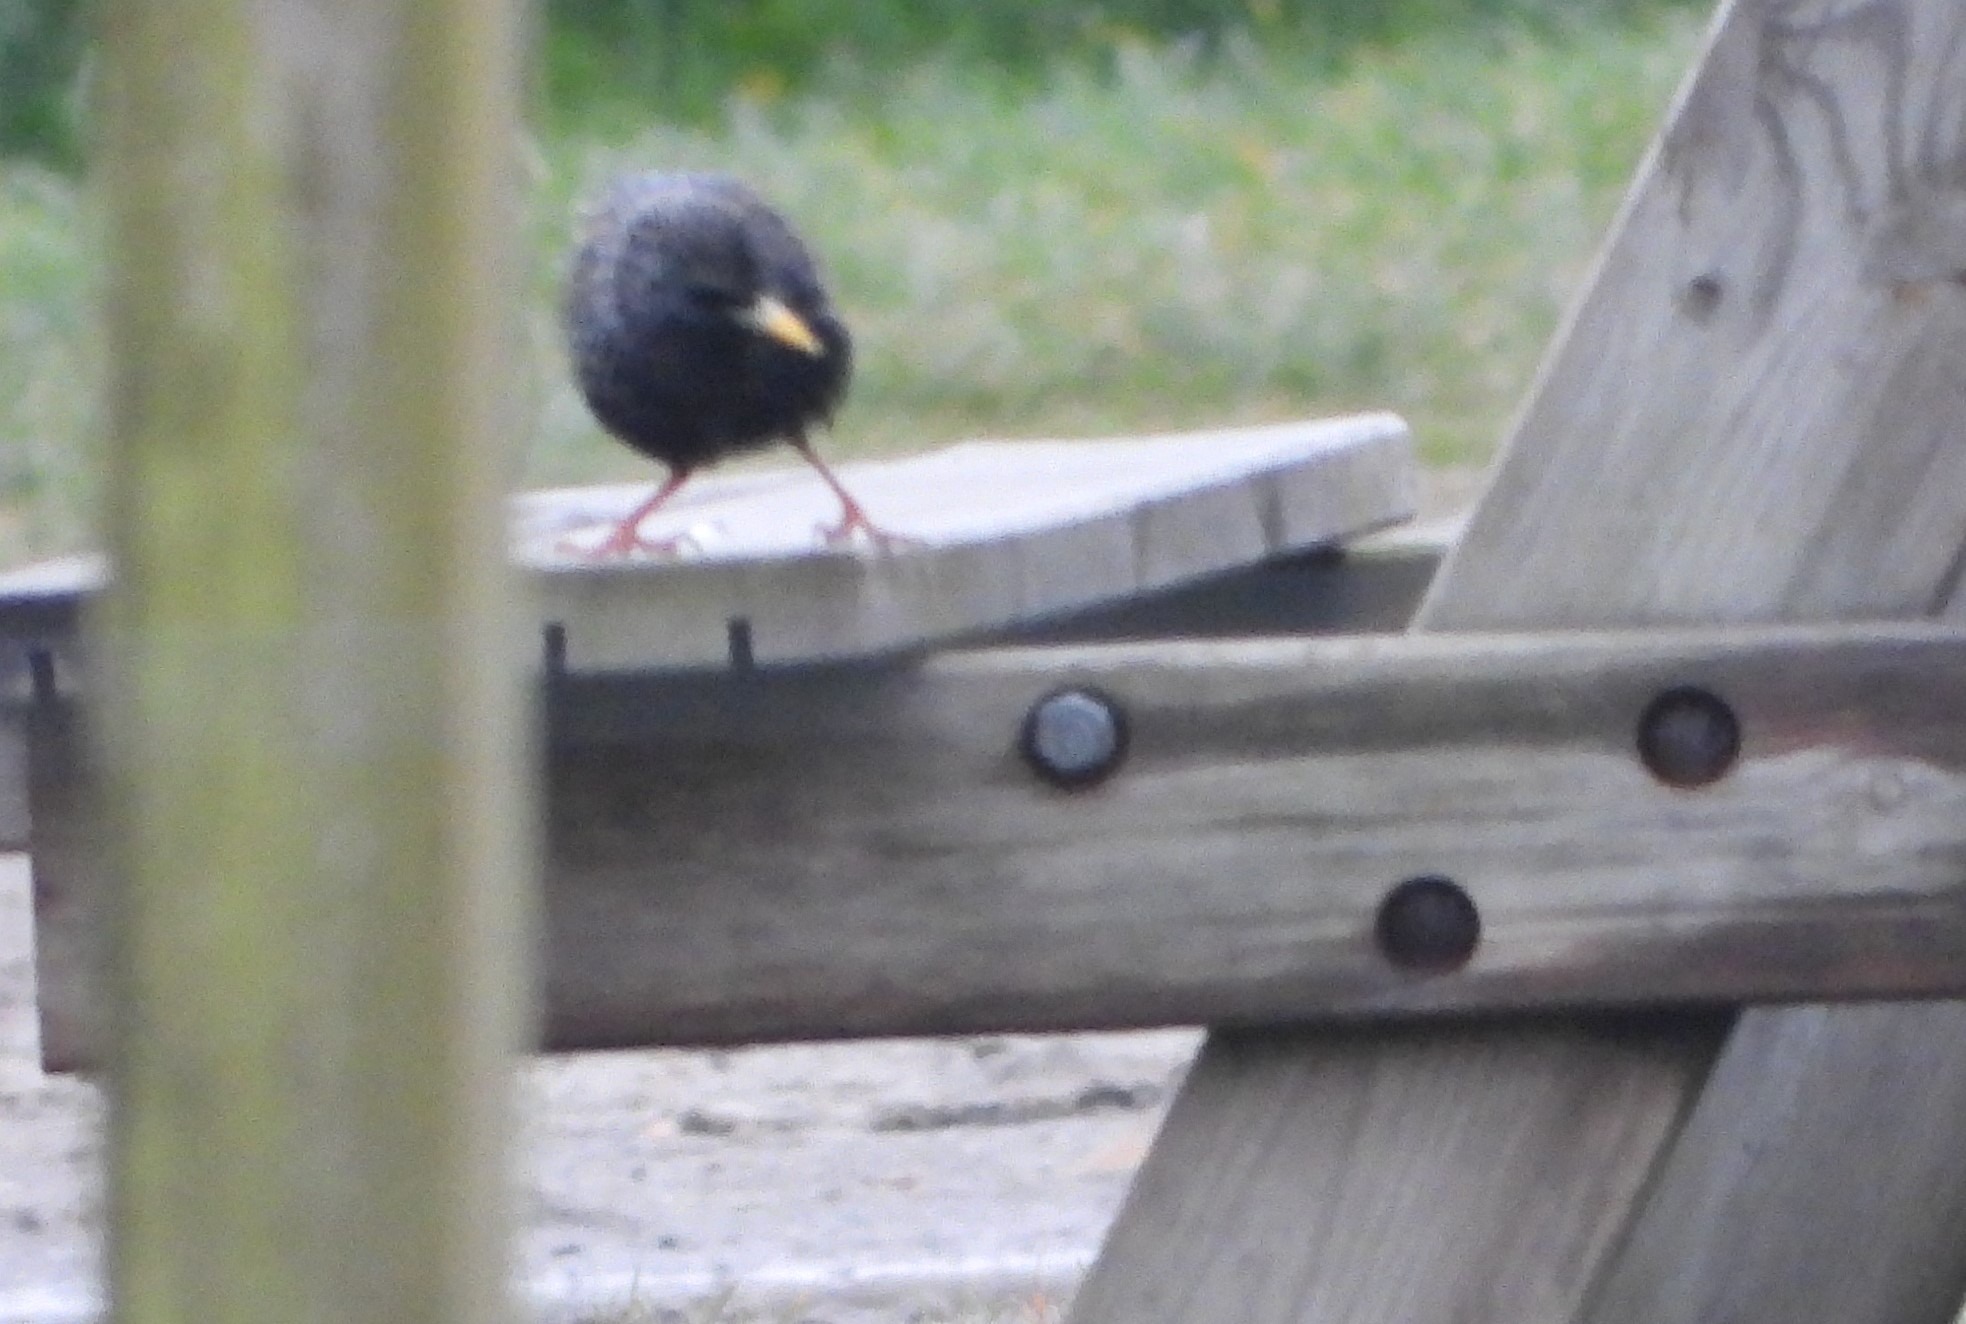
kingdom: Animalia
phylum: Chordata
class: Aves
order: Passeriformes
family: Sturnidae
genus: Sturnus
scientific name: Sturnus vulgaris
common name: Stær
